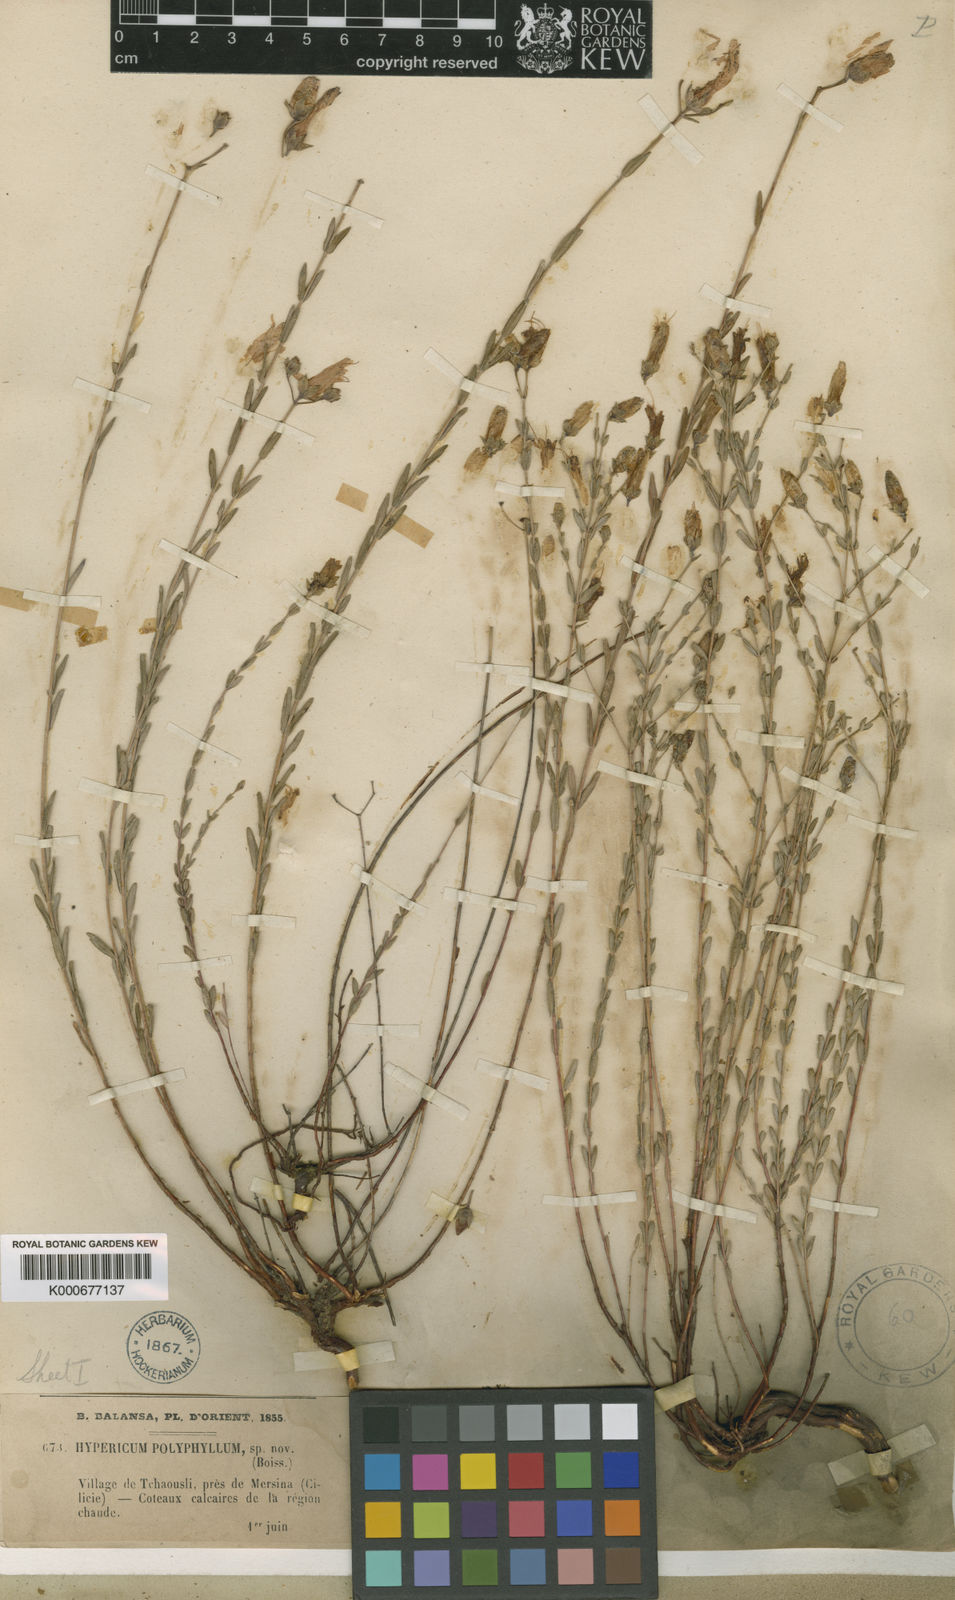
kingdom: Plantae
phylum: Tracheophyta
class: Magnoliopsida
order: Malpighiales
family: Hypericaceae
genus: Hypericum
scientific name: Hypericum polyphyllum
